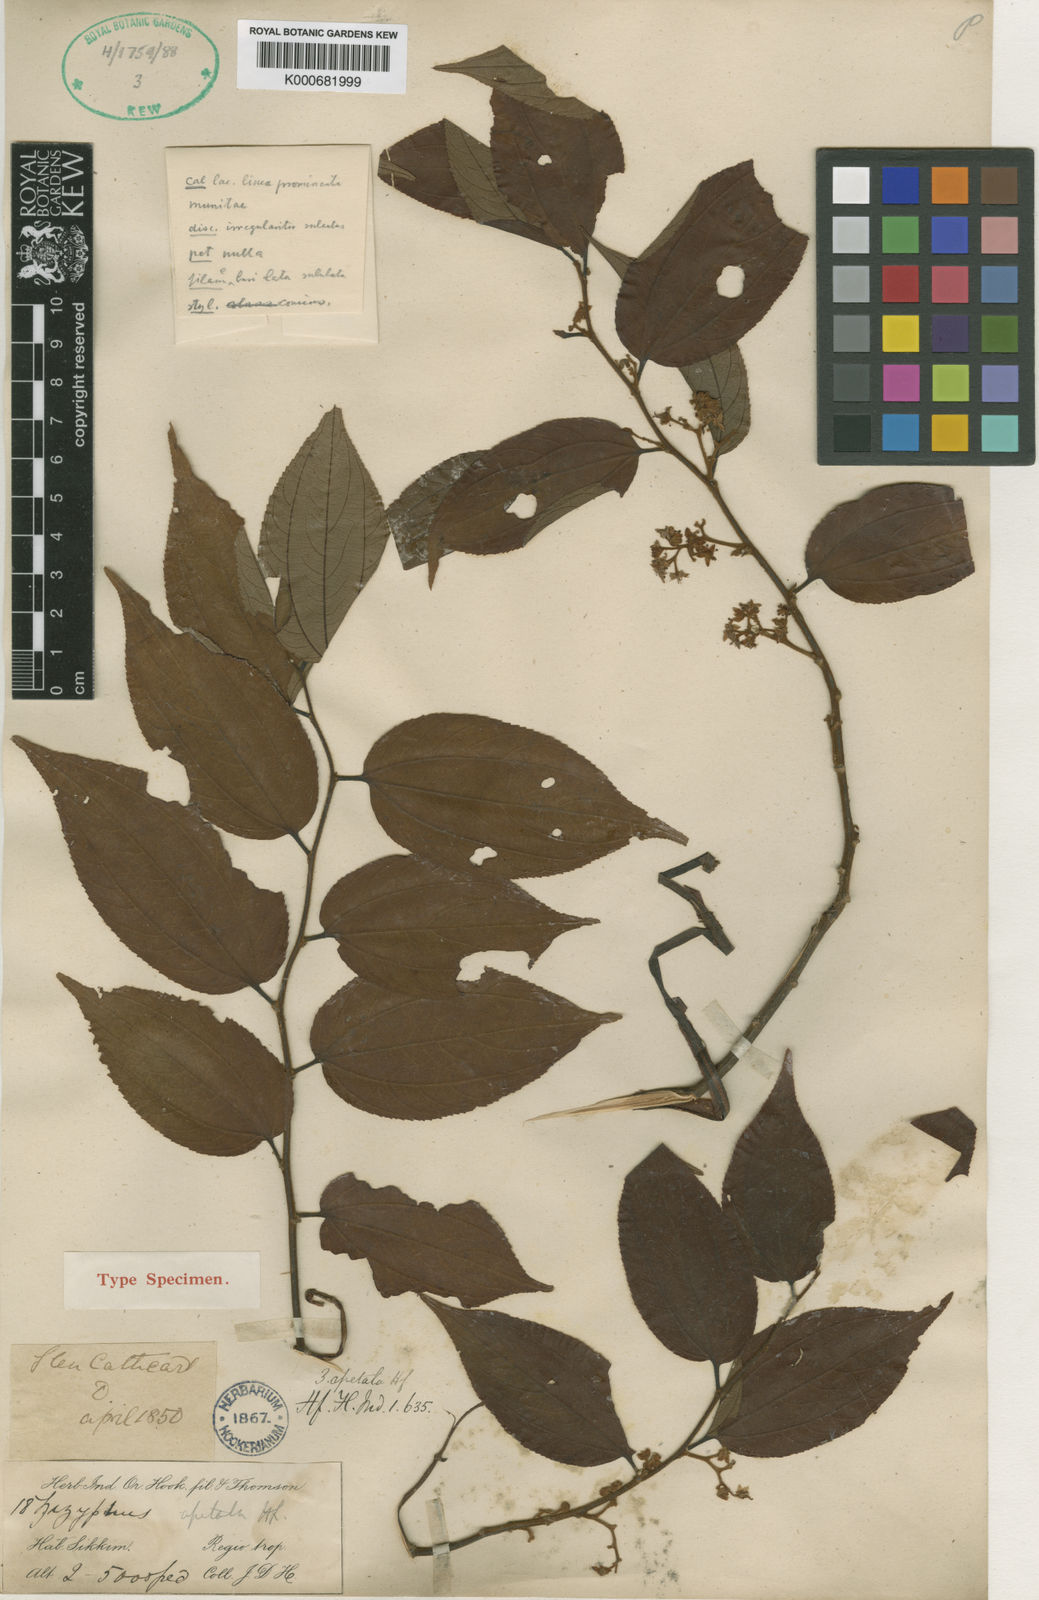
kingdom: Plantae
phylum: Tracheophyta
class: Magnoliopsida
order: Rosales
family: Rhamnaceae
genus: Ziziphus
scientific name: Ziziphus apetala
